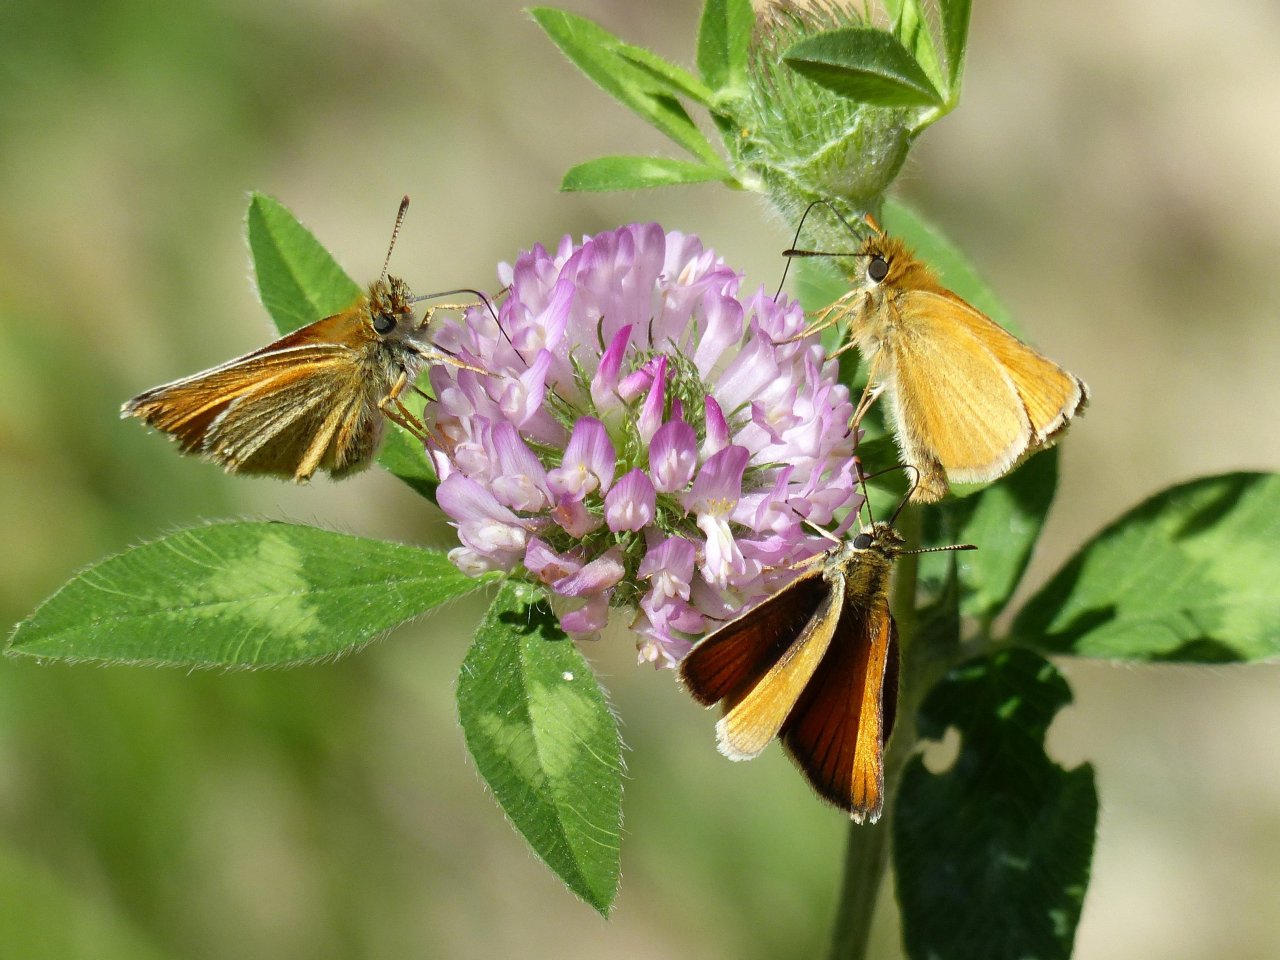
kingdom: Animalia
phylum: Arthropoda
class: Insecta
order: Lepidoptera
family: Hesperiidae
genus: Thymelicus
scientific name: Thymelicus lineola
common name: European Skipper
